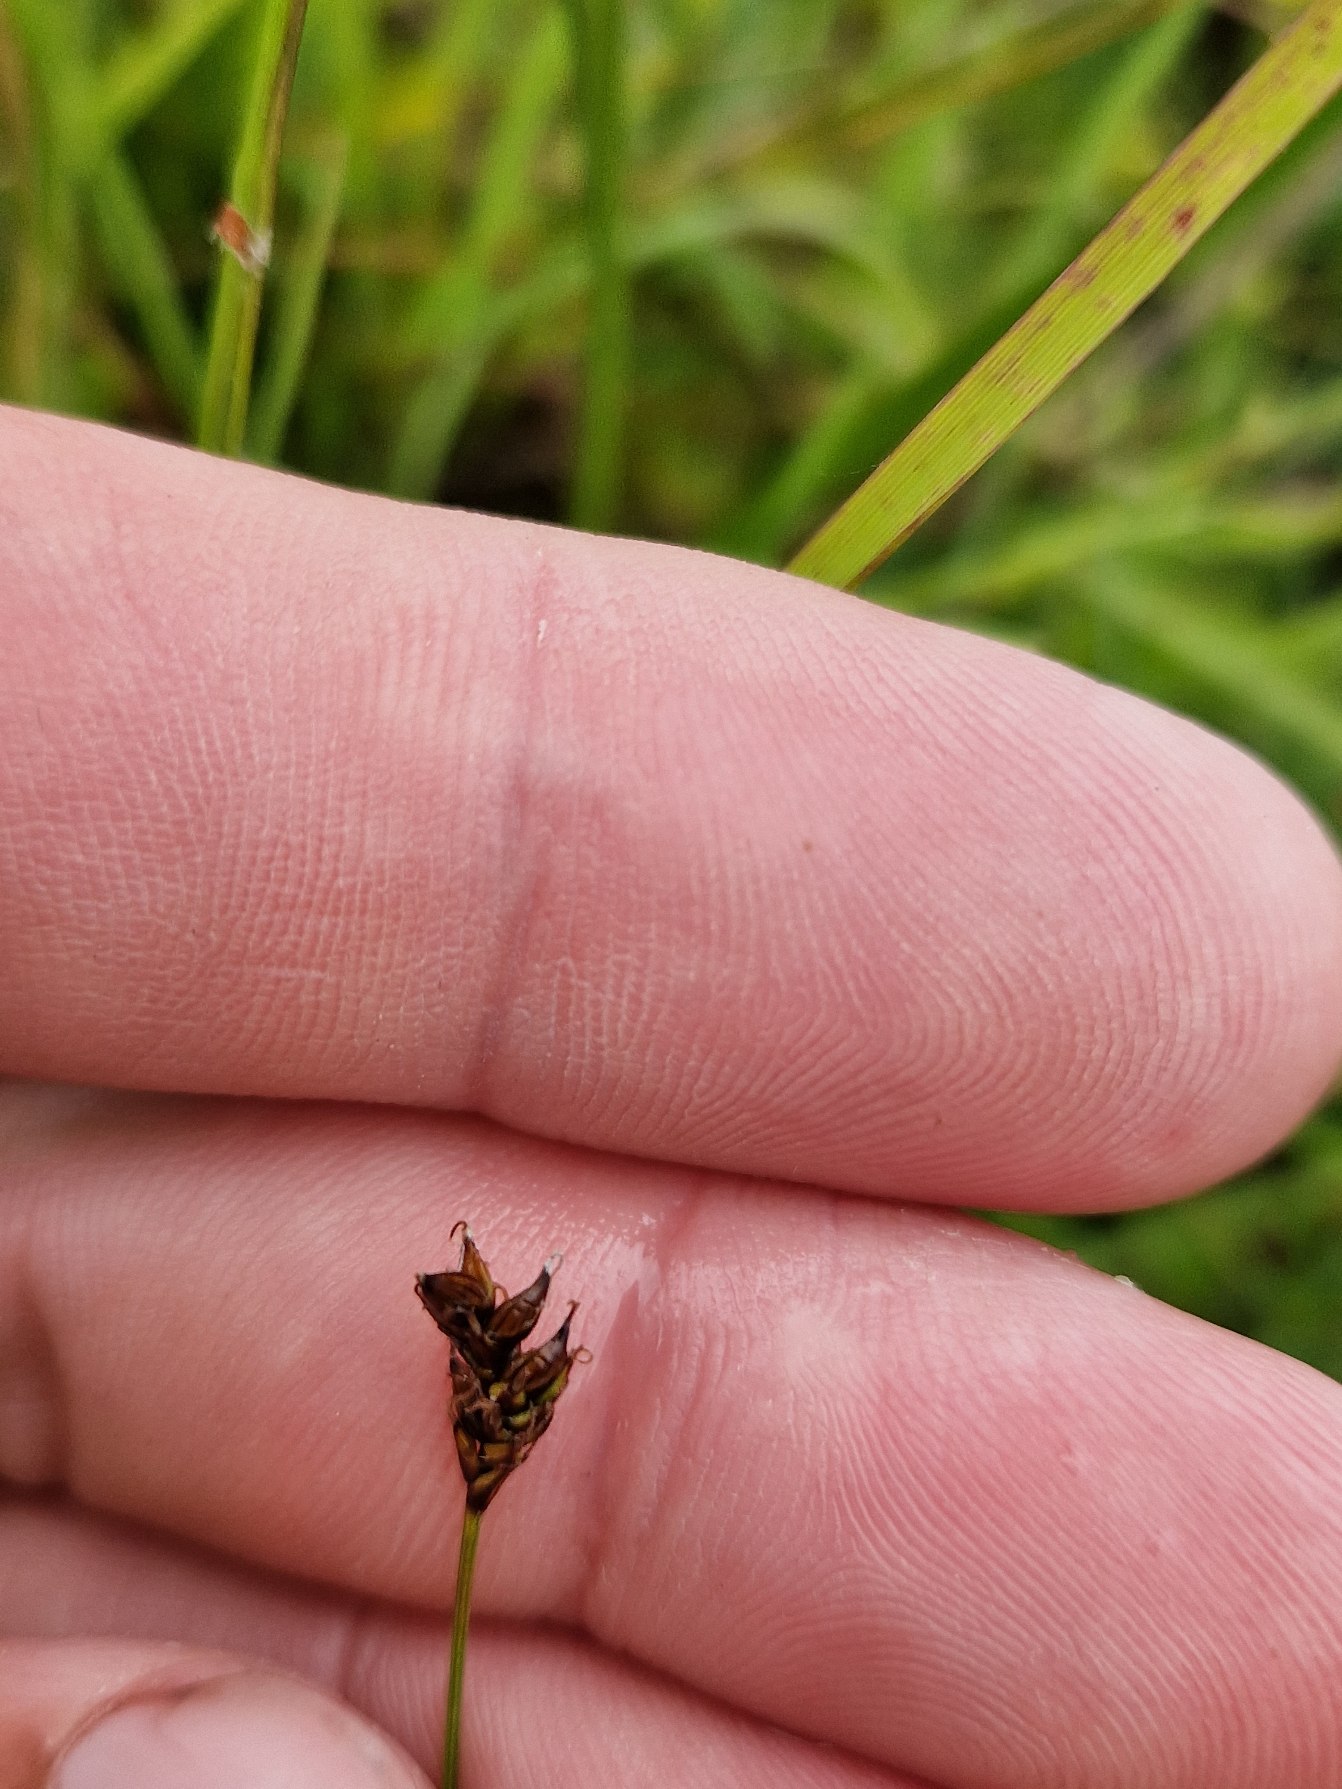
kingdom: Plantae
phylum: Tracheophyta
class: Liliopsida
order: Poales
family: Cyperaceae
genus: Carex
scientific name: Carex dioica
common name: Tvebo star
